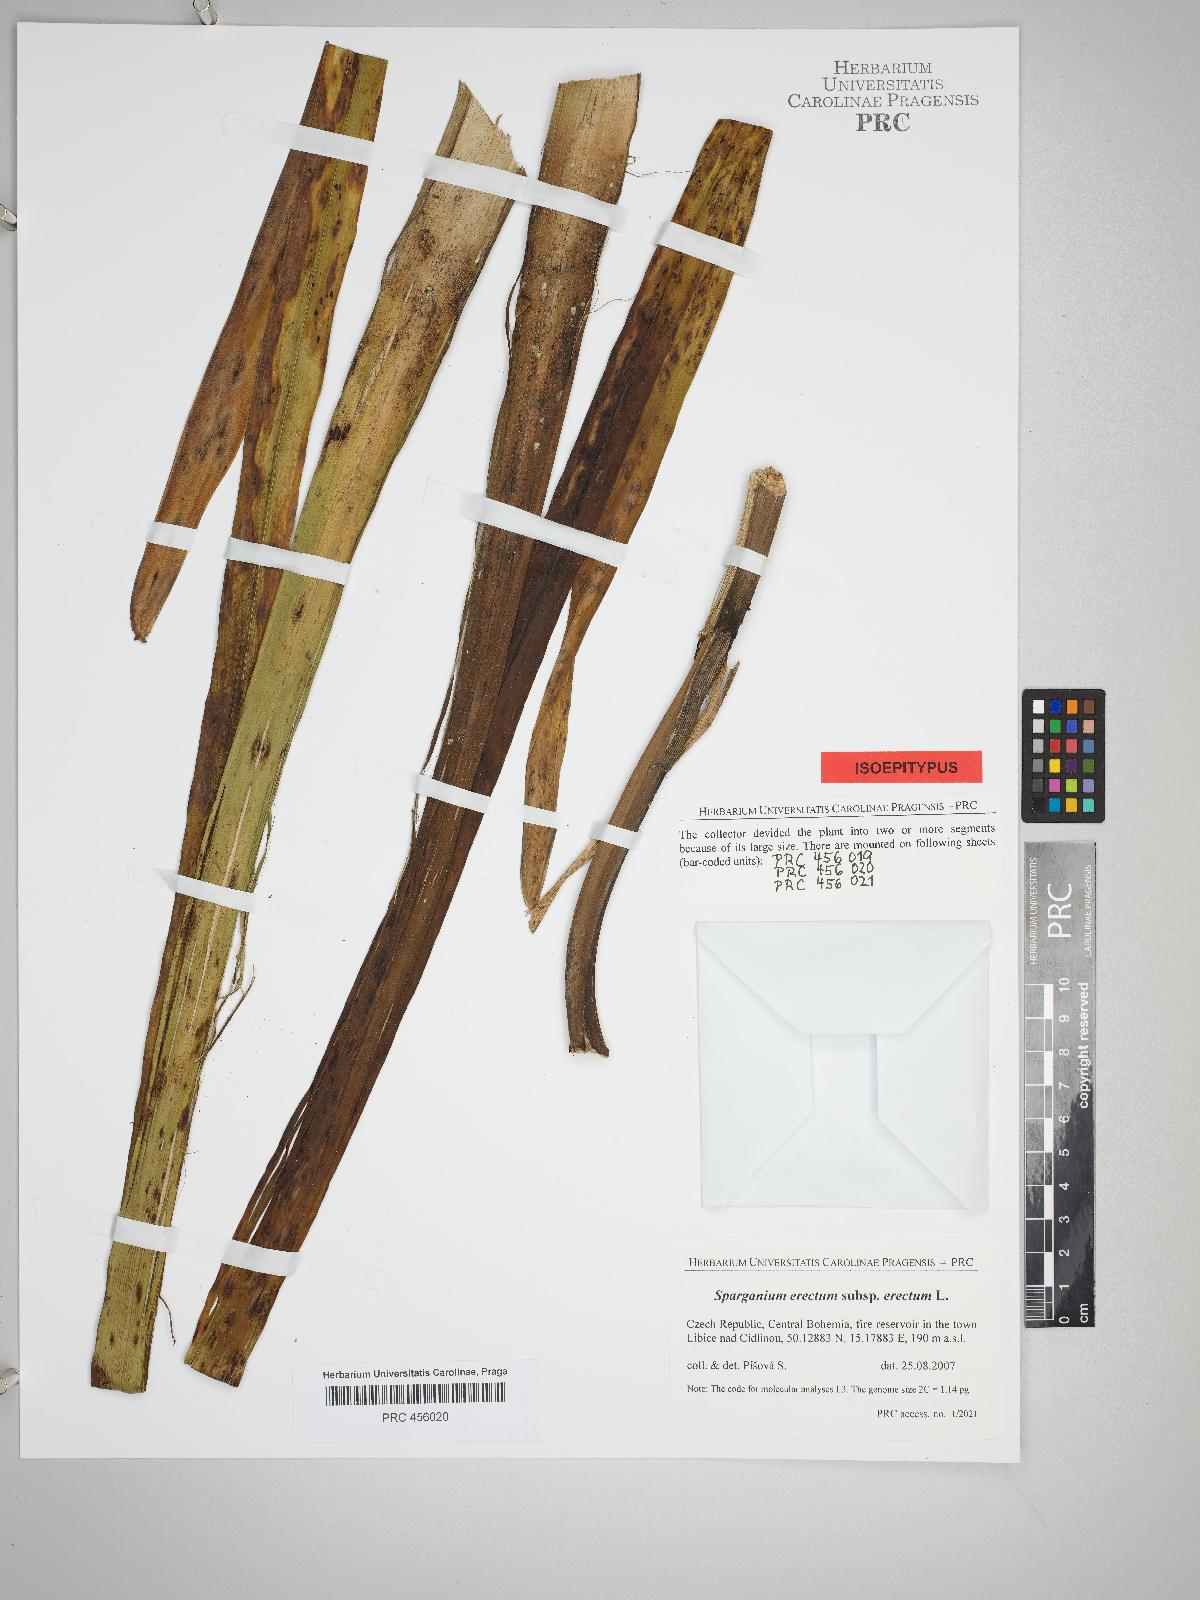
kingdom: Plantae
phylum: Tracheophyta
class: Liliopsida
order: Poales
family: Typhaceae
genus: Sparganium
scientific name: Sparganium erectum
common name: Branched bur-reed
